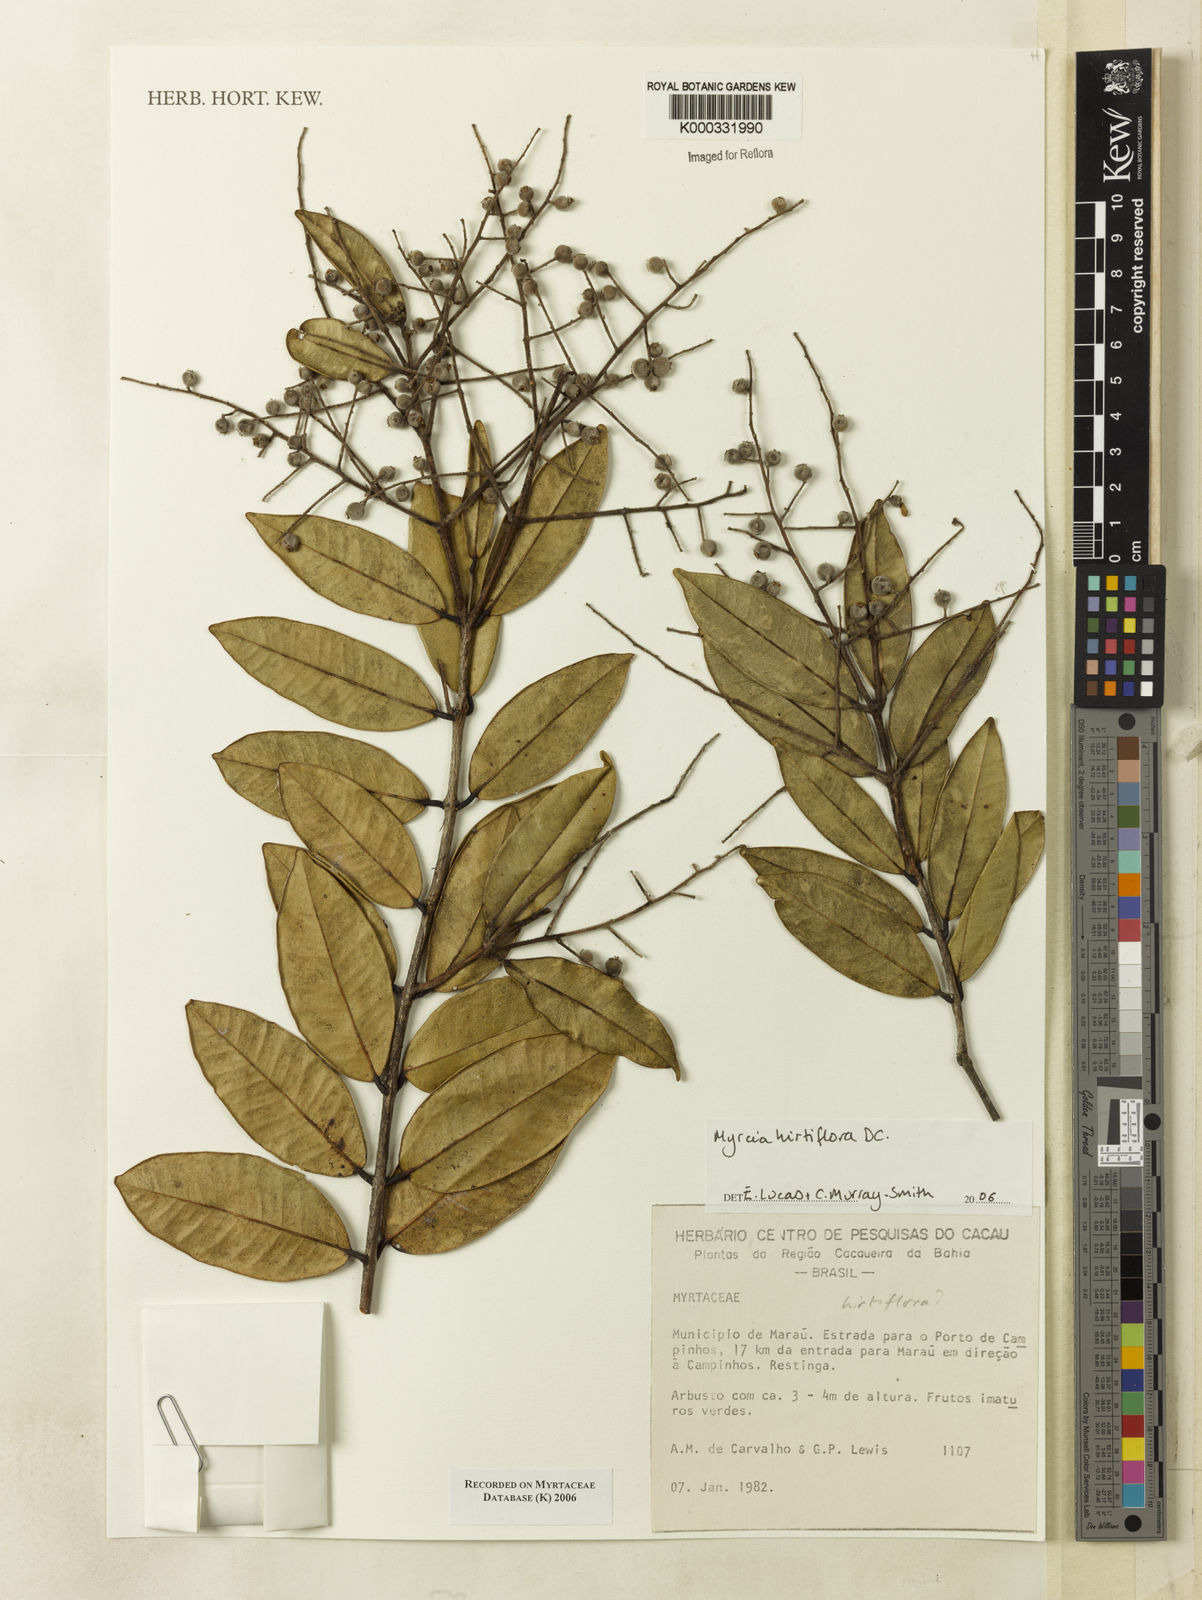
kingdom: Plantae
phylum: Tracheophyta
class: Magnoliopsida
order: Myrtales
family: Myrtaceae
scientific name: Myrtaceae
